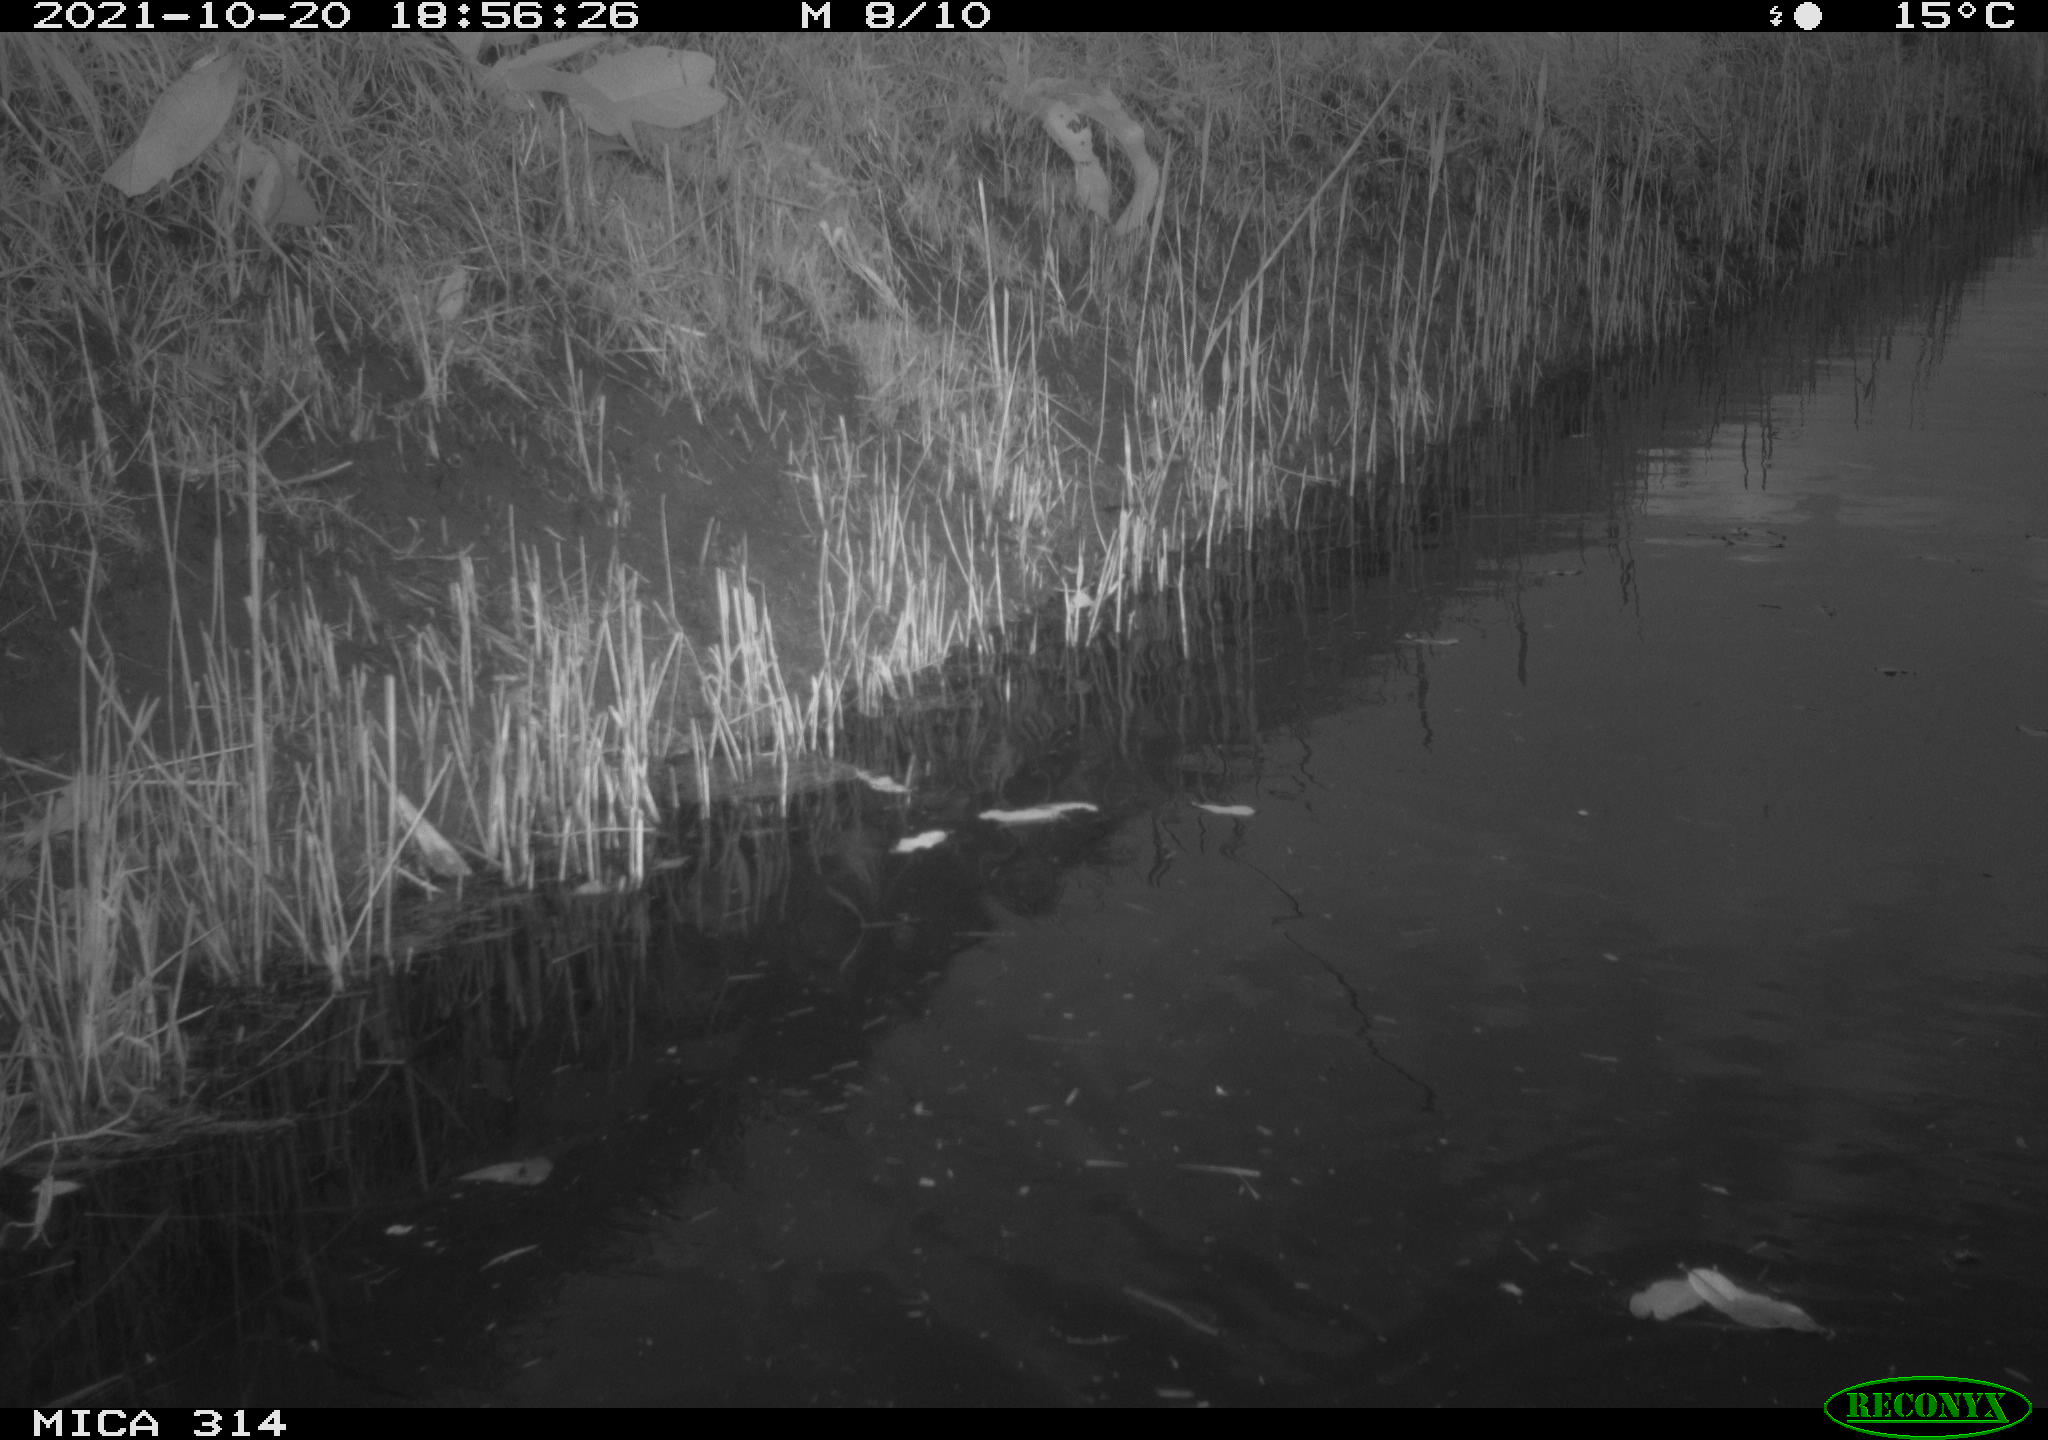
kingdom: Animalia
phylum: Chordata
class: Aves
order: Gruiformes
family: Rallidae
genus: Gallinula
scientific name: Gallinula chloropus
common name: Common moorhen
